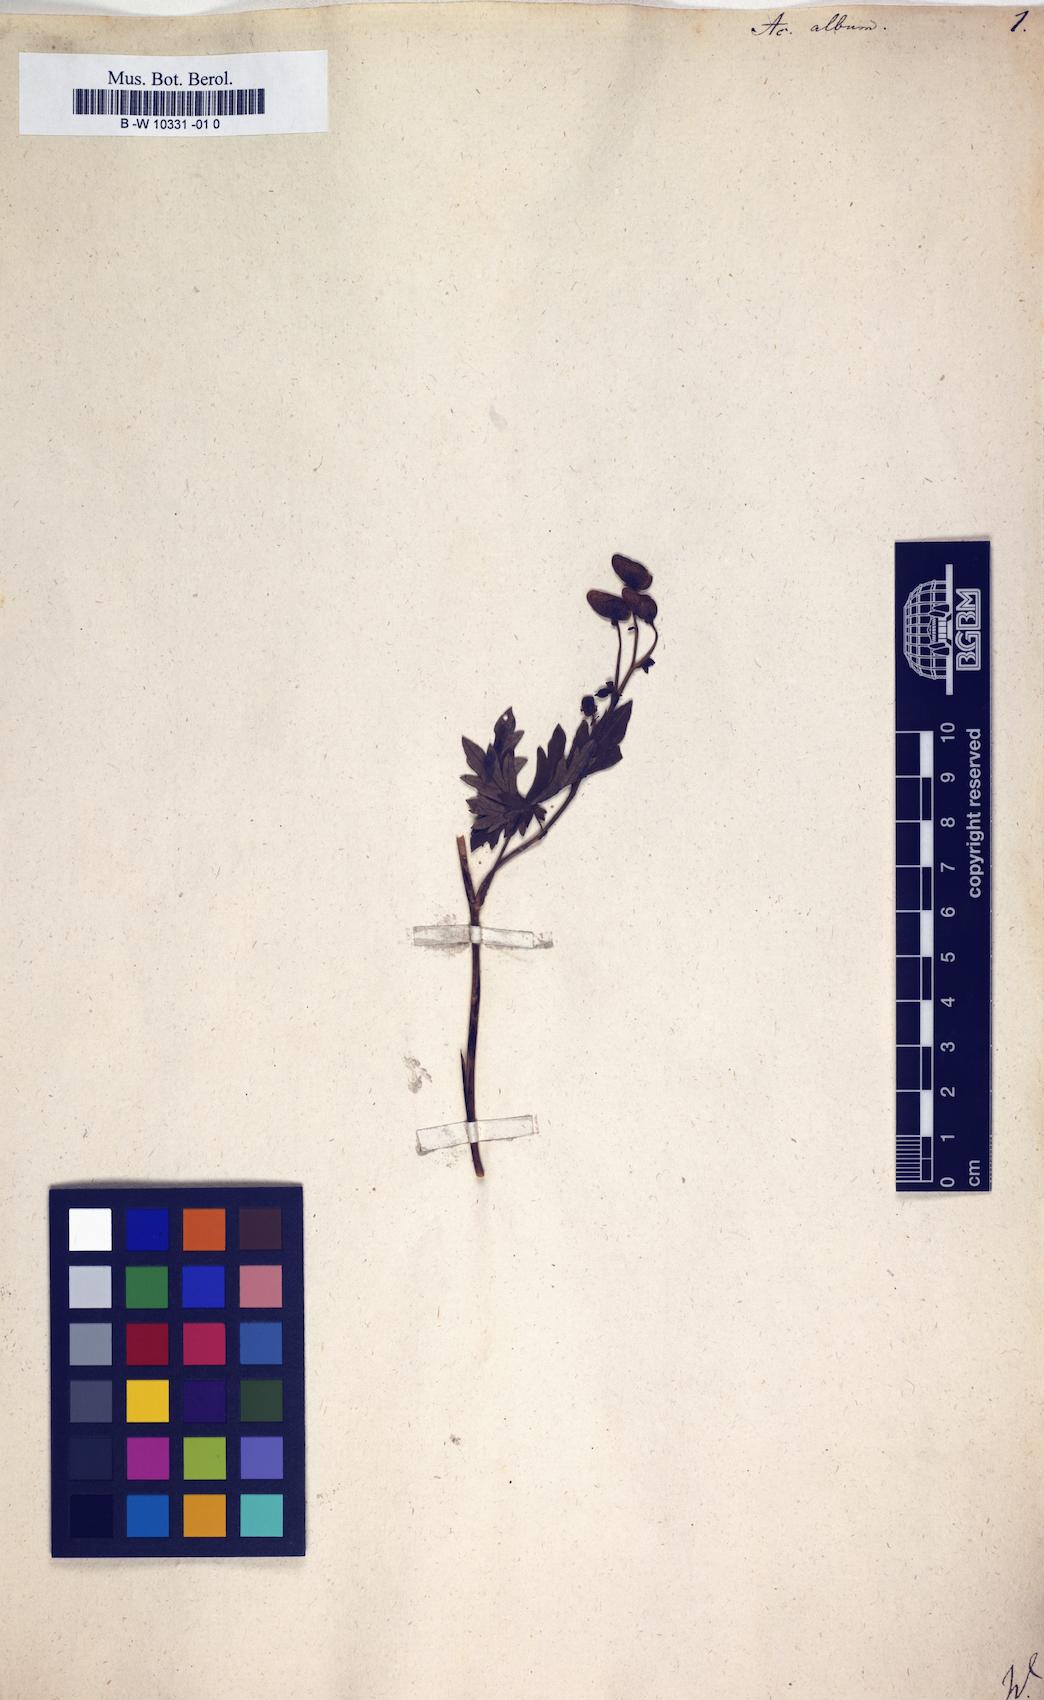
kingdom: Plantae
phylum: Tracheophyta
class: Magnoliopsida
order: Ranunculales
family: Ranunculaceae
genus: Aconitum
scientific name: Aconitum variegatum
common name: Manchurian monkshood
